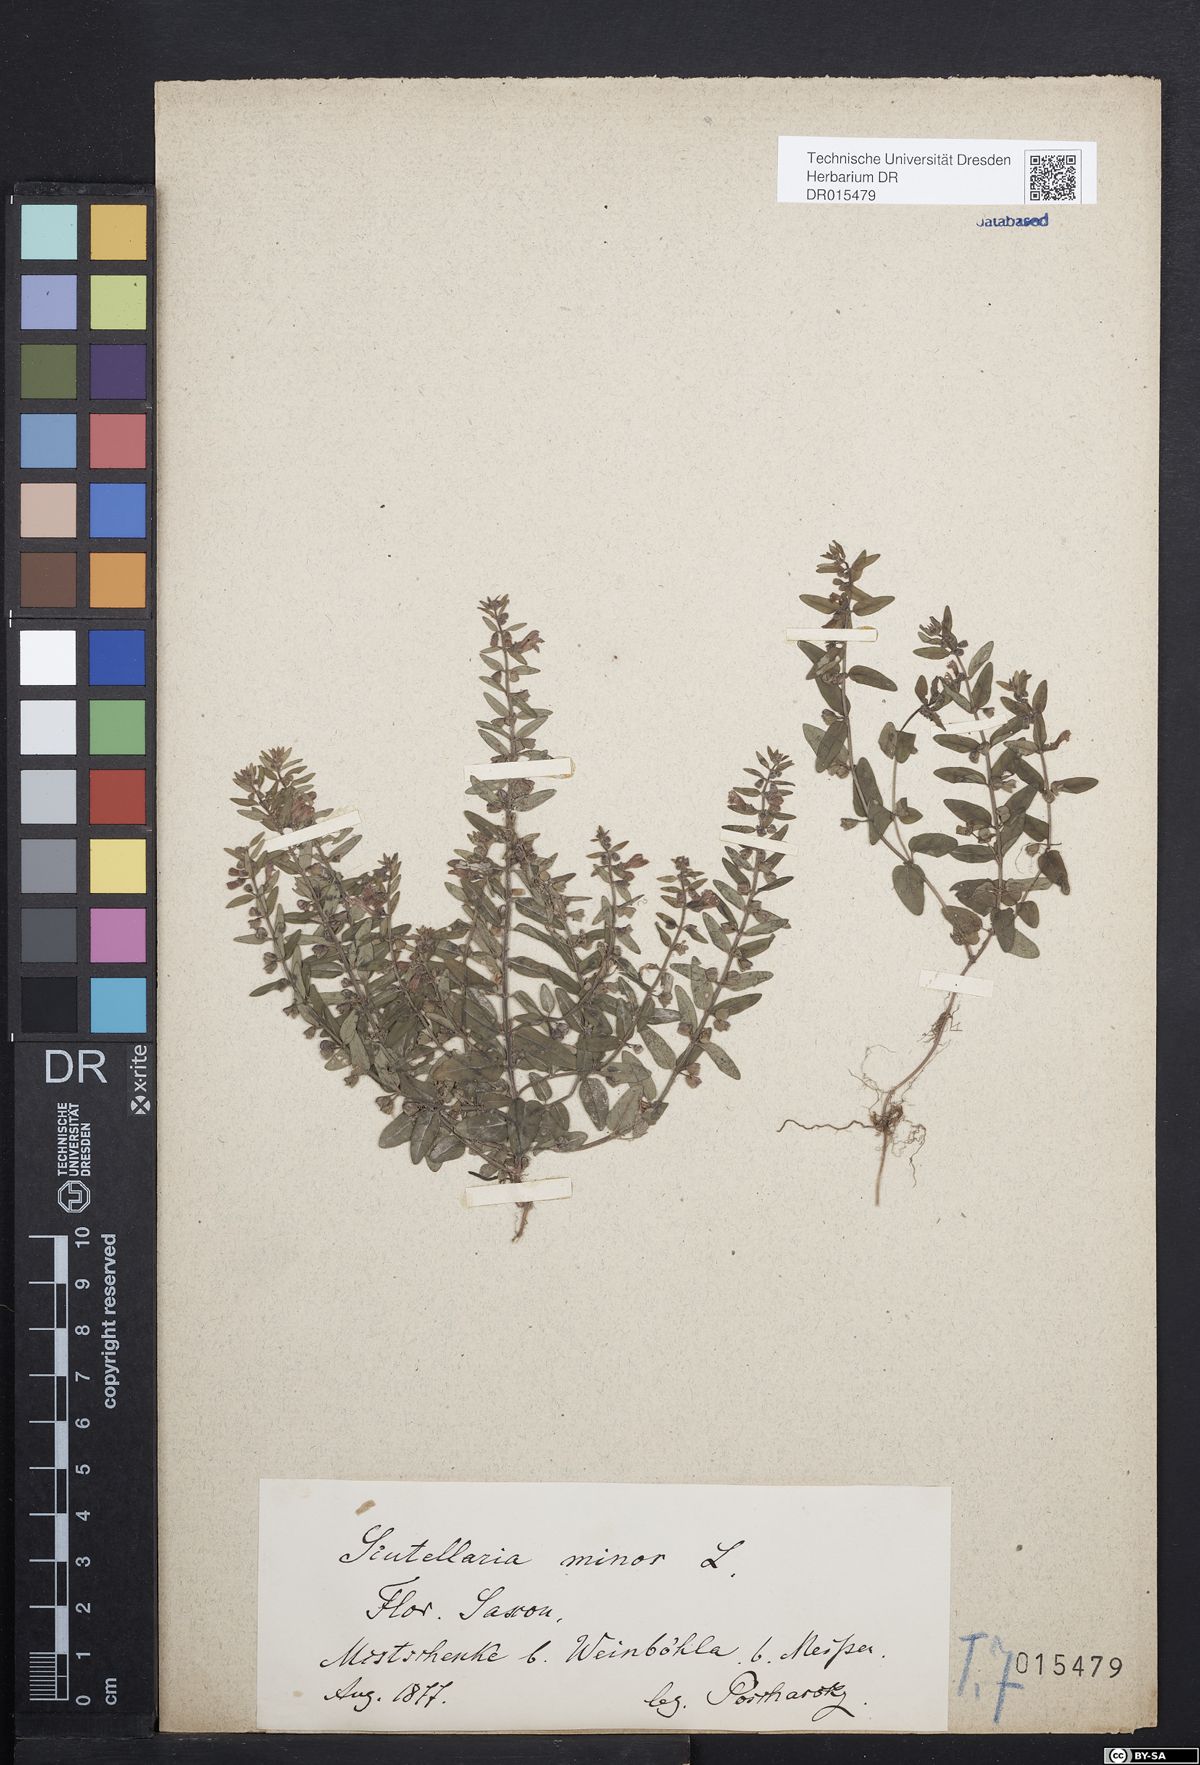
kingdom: Plantae
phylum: Tracheophyta
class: Magnoliopsida
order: Lamiales
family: Lamiaceae
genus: Scutellaria
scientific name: Scutellaria minor
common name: Lesser skullcap
